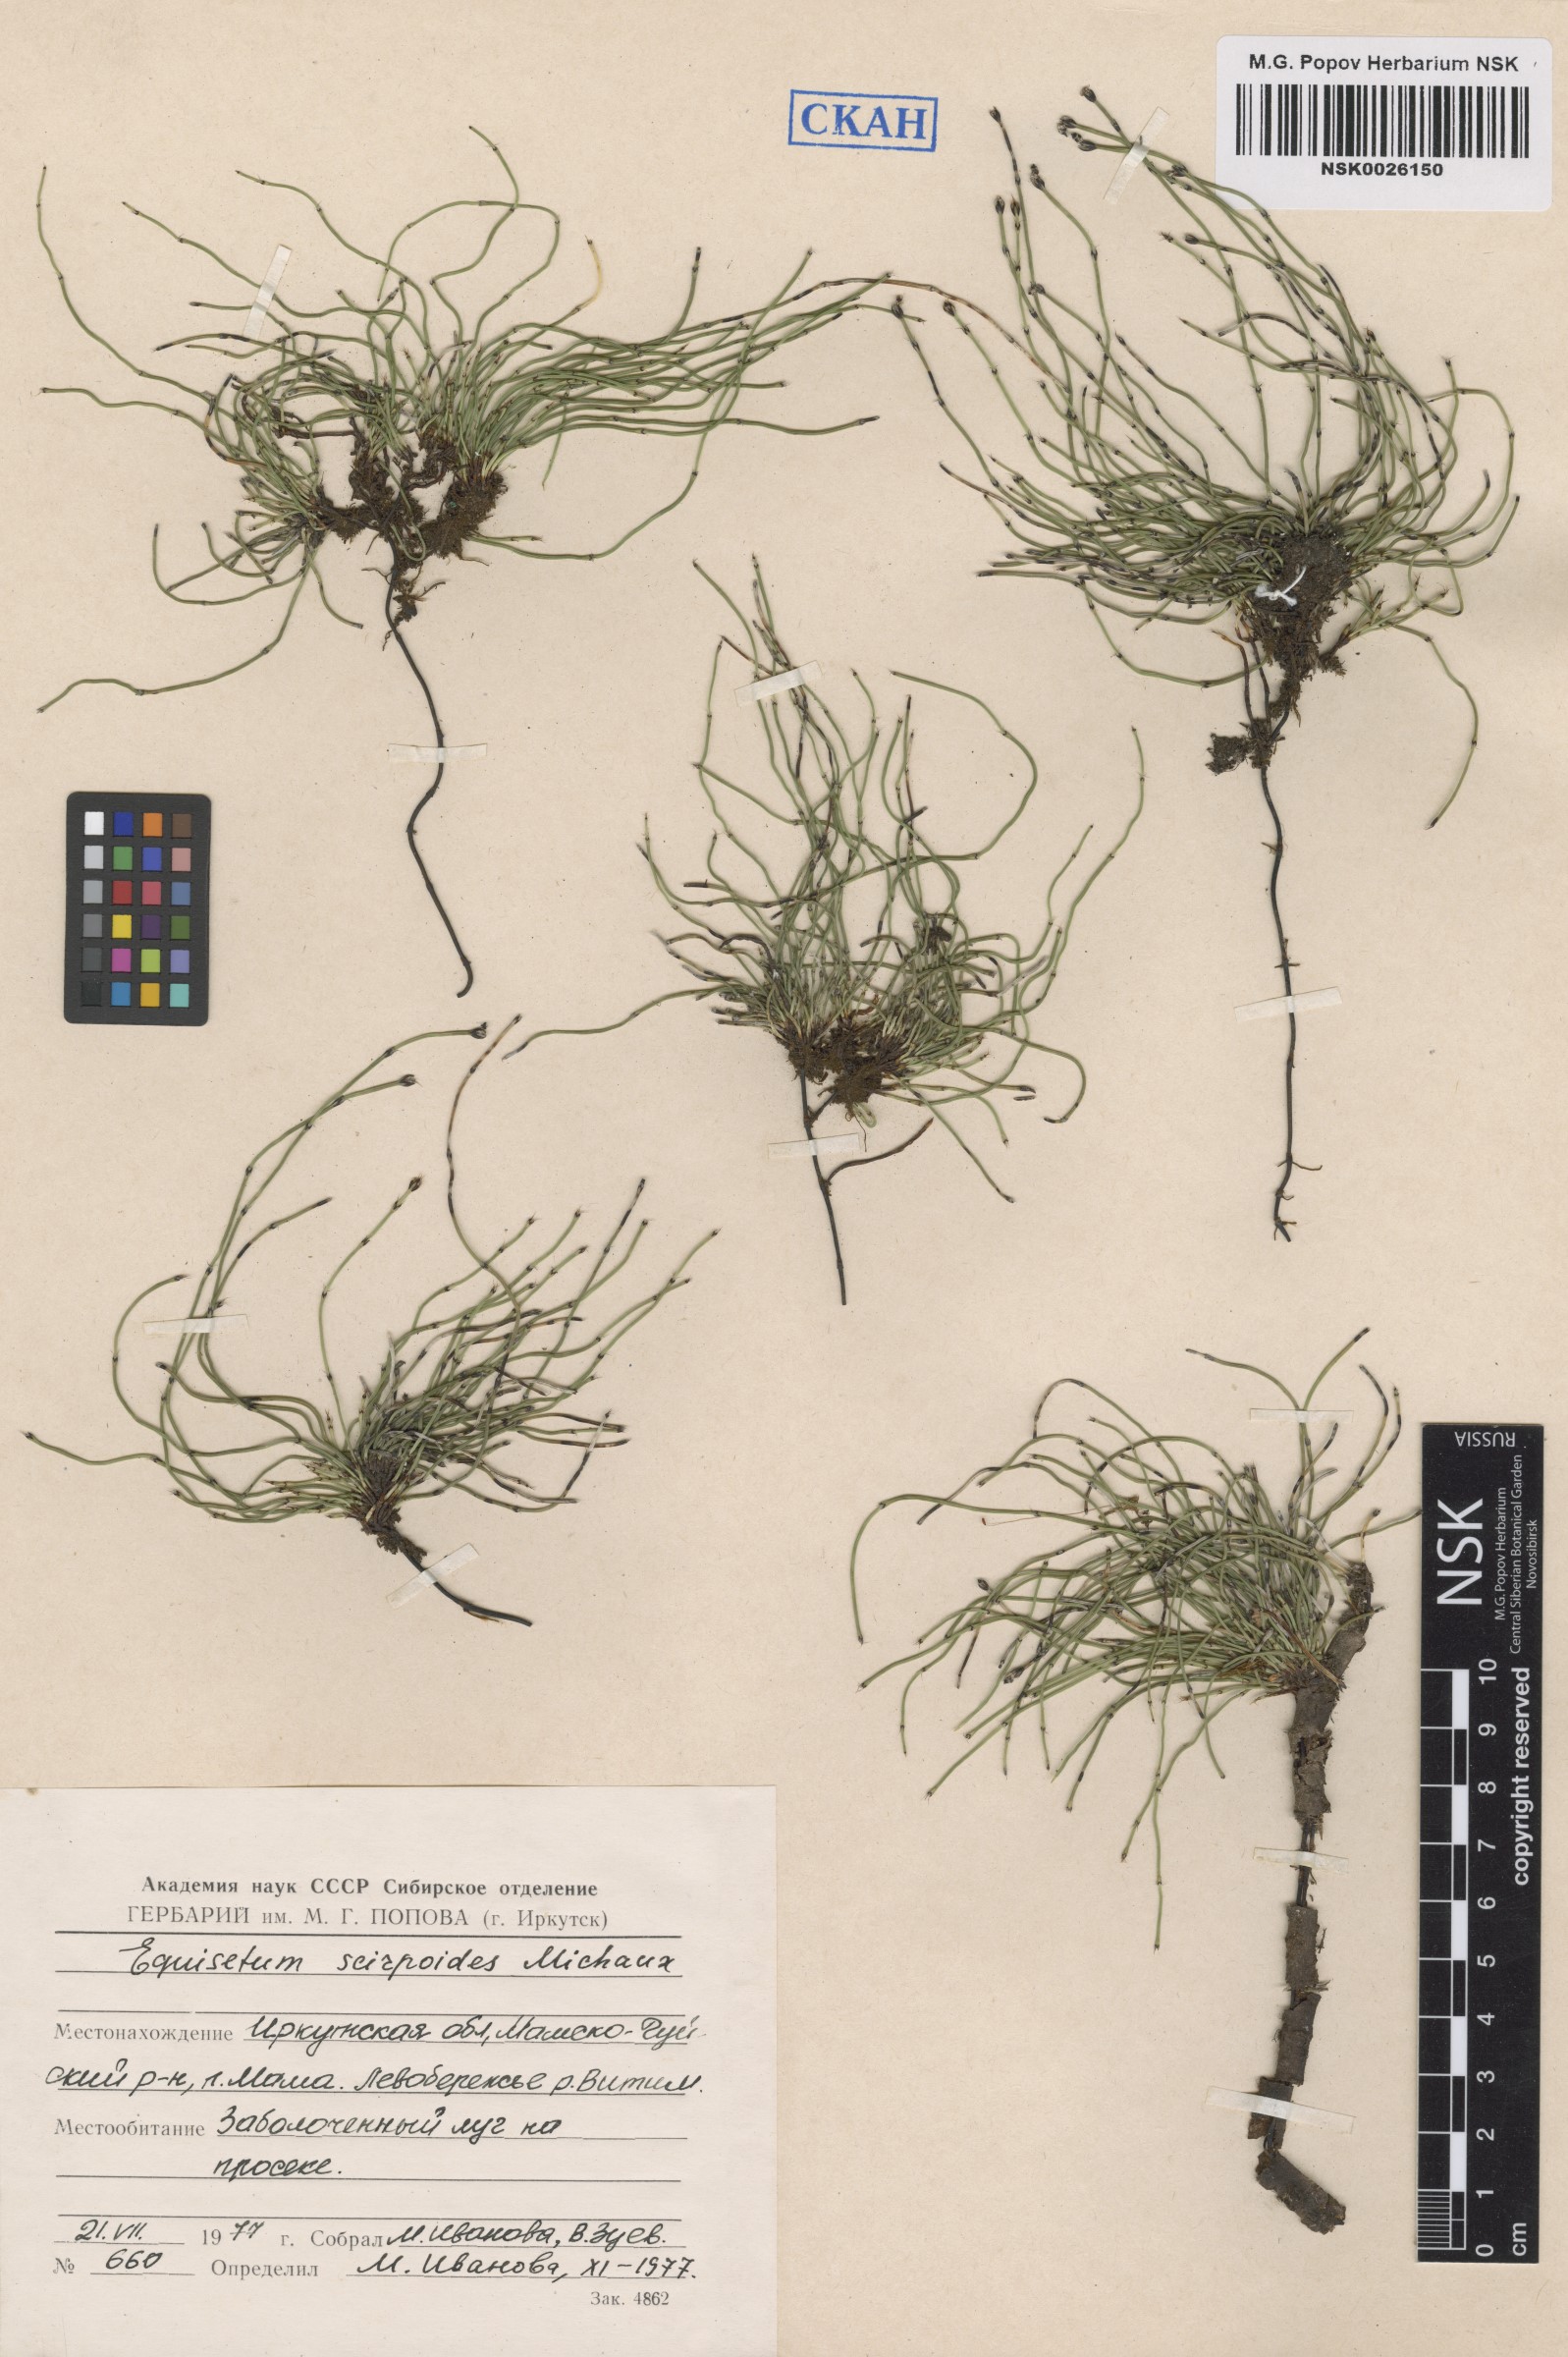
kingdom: Plantae
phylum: Tracheophyta
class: Polypodiopsida
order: Equisetales
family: Equisetaceae
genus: Equisetum
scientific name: Equisetum scirpoides
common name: Delicate horsetail
